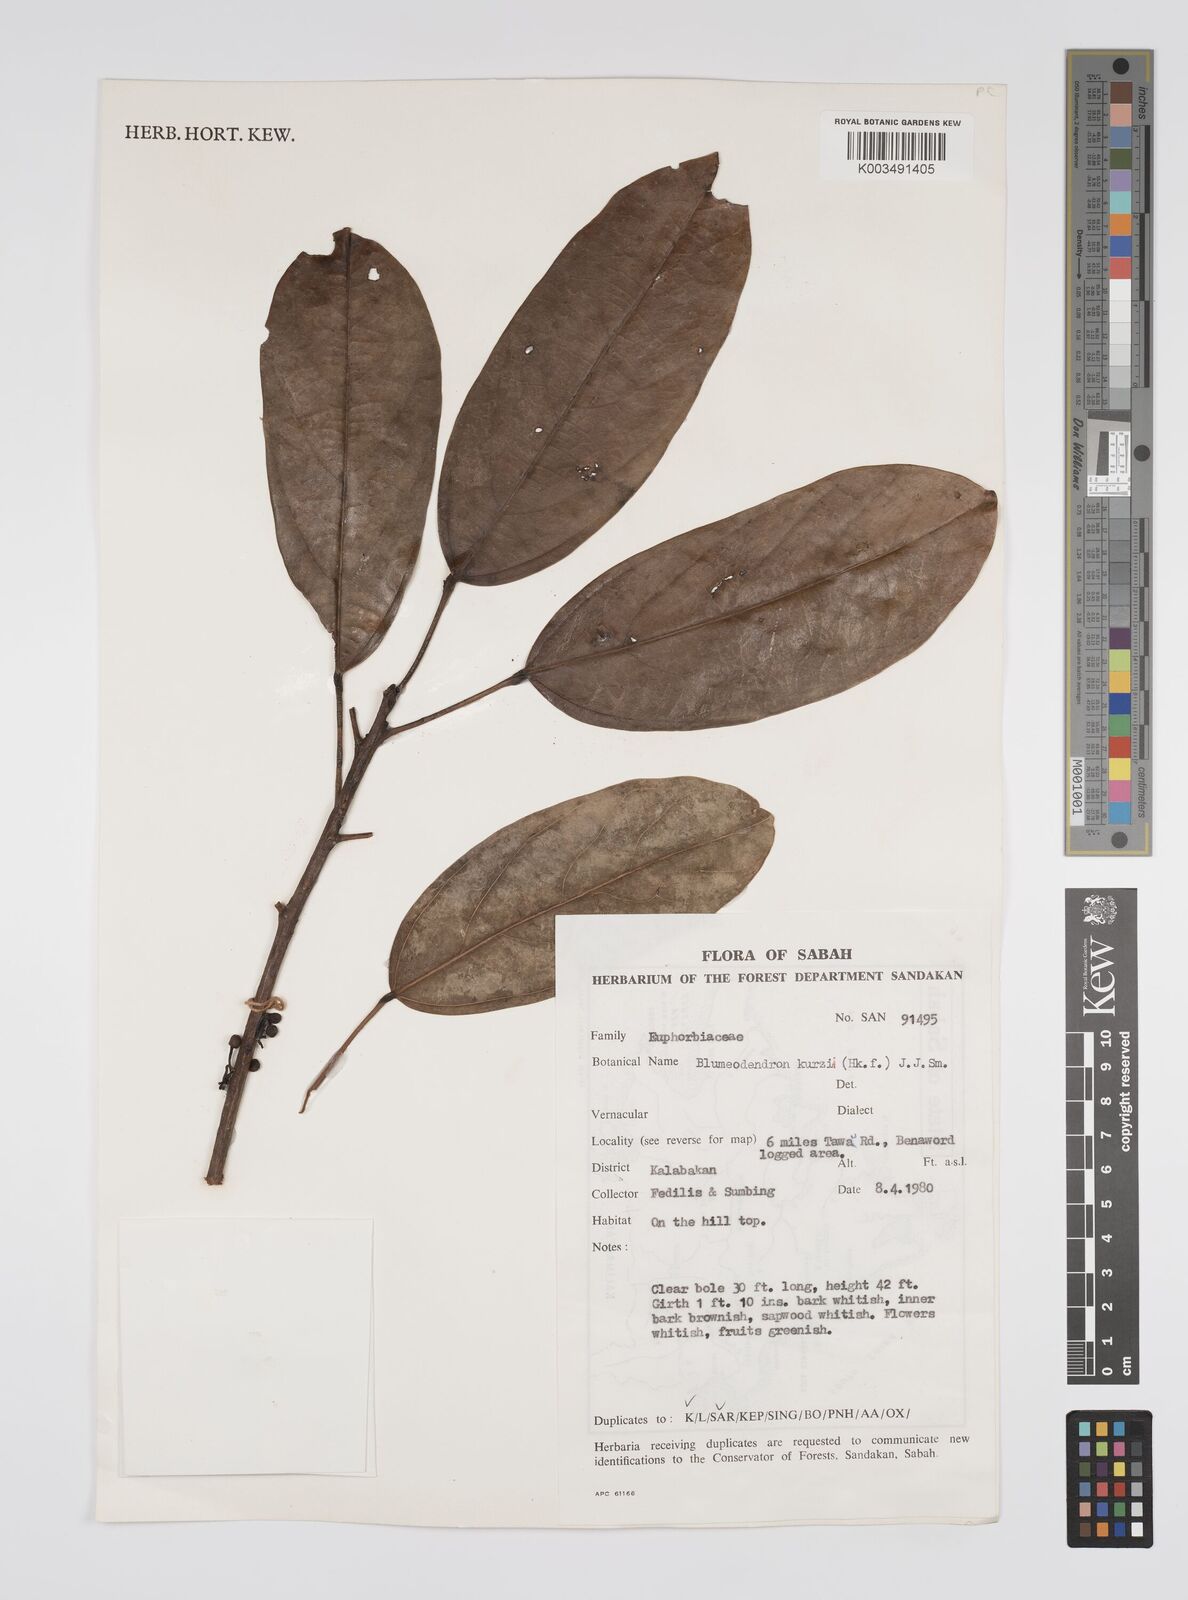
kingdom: Plantae
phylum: Tracheophyta
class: Magnoliopsida
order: Malpighiales
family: Euphorbiaceae
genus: Blumeodendron
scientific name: Blumeodendron kurzii
